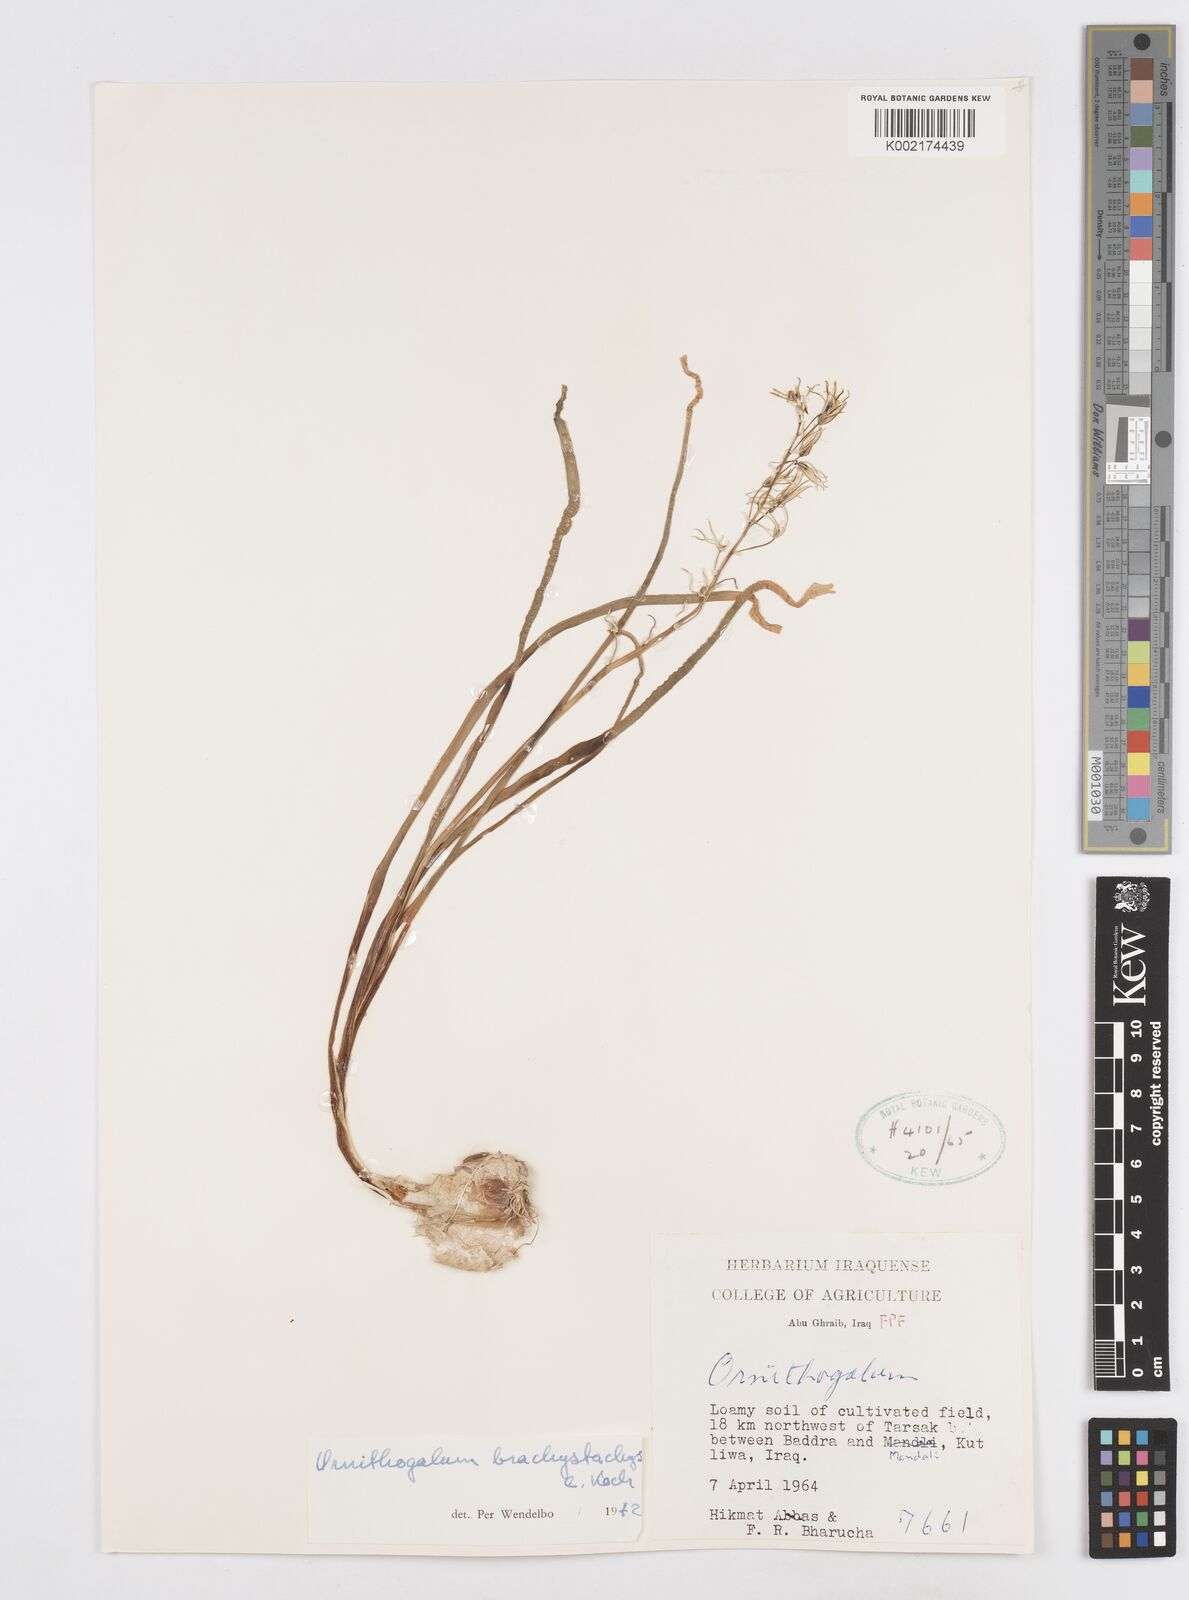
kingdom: Plantae
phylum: Tracheophyta
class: Liliopsida
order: Asparagales
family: Asparagaceae
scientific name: Asparagaceae
